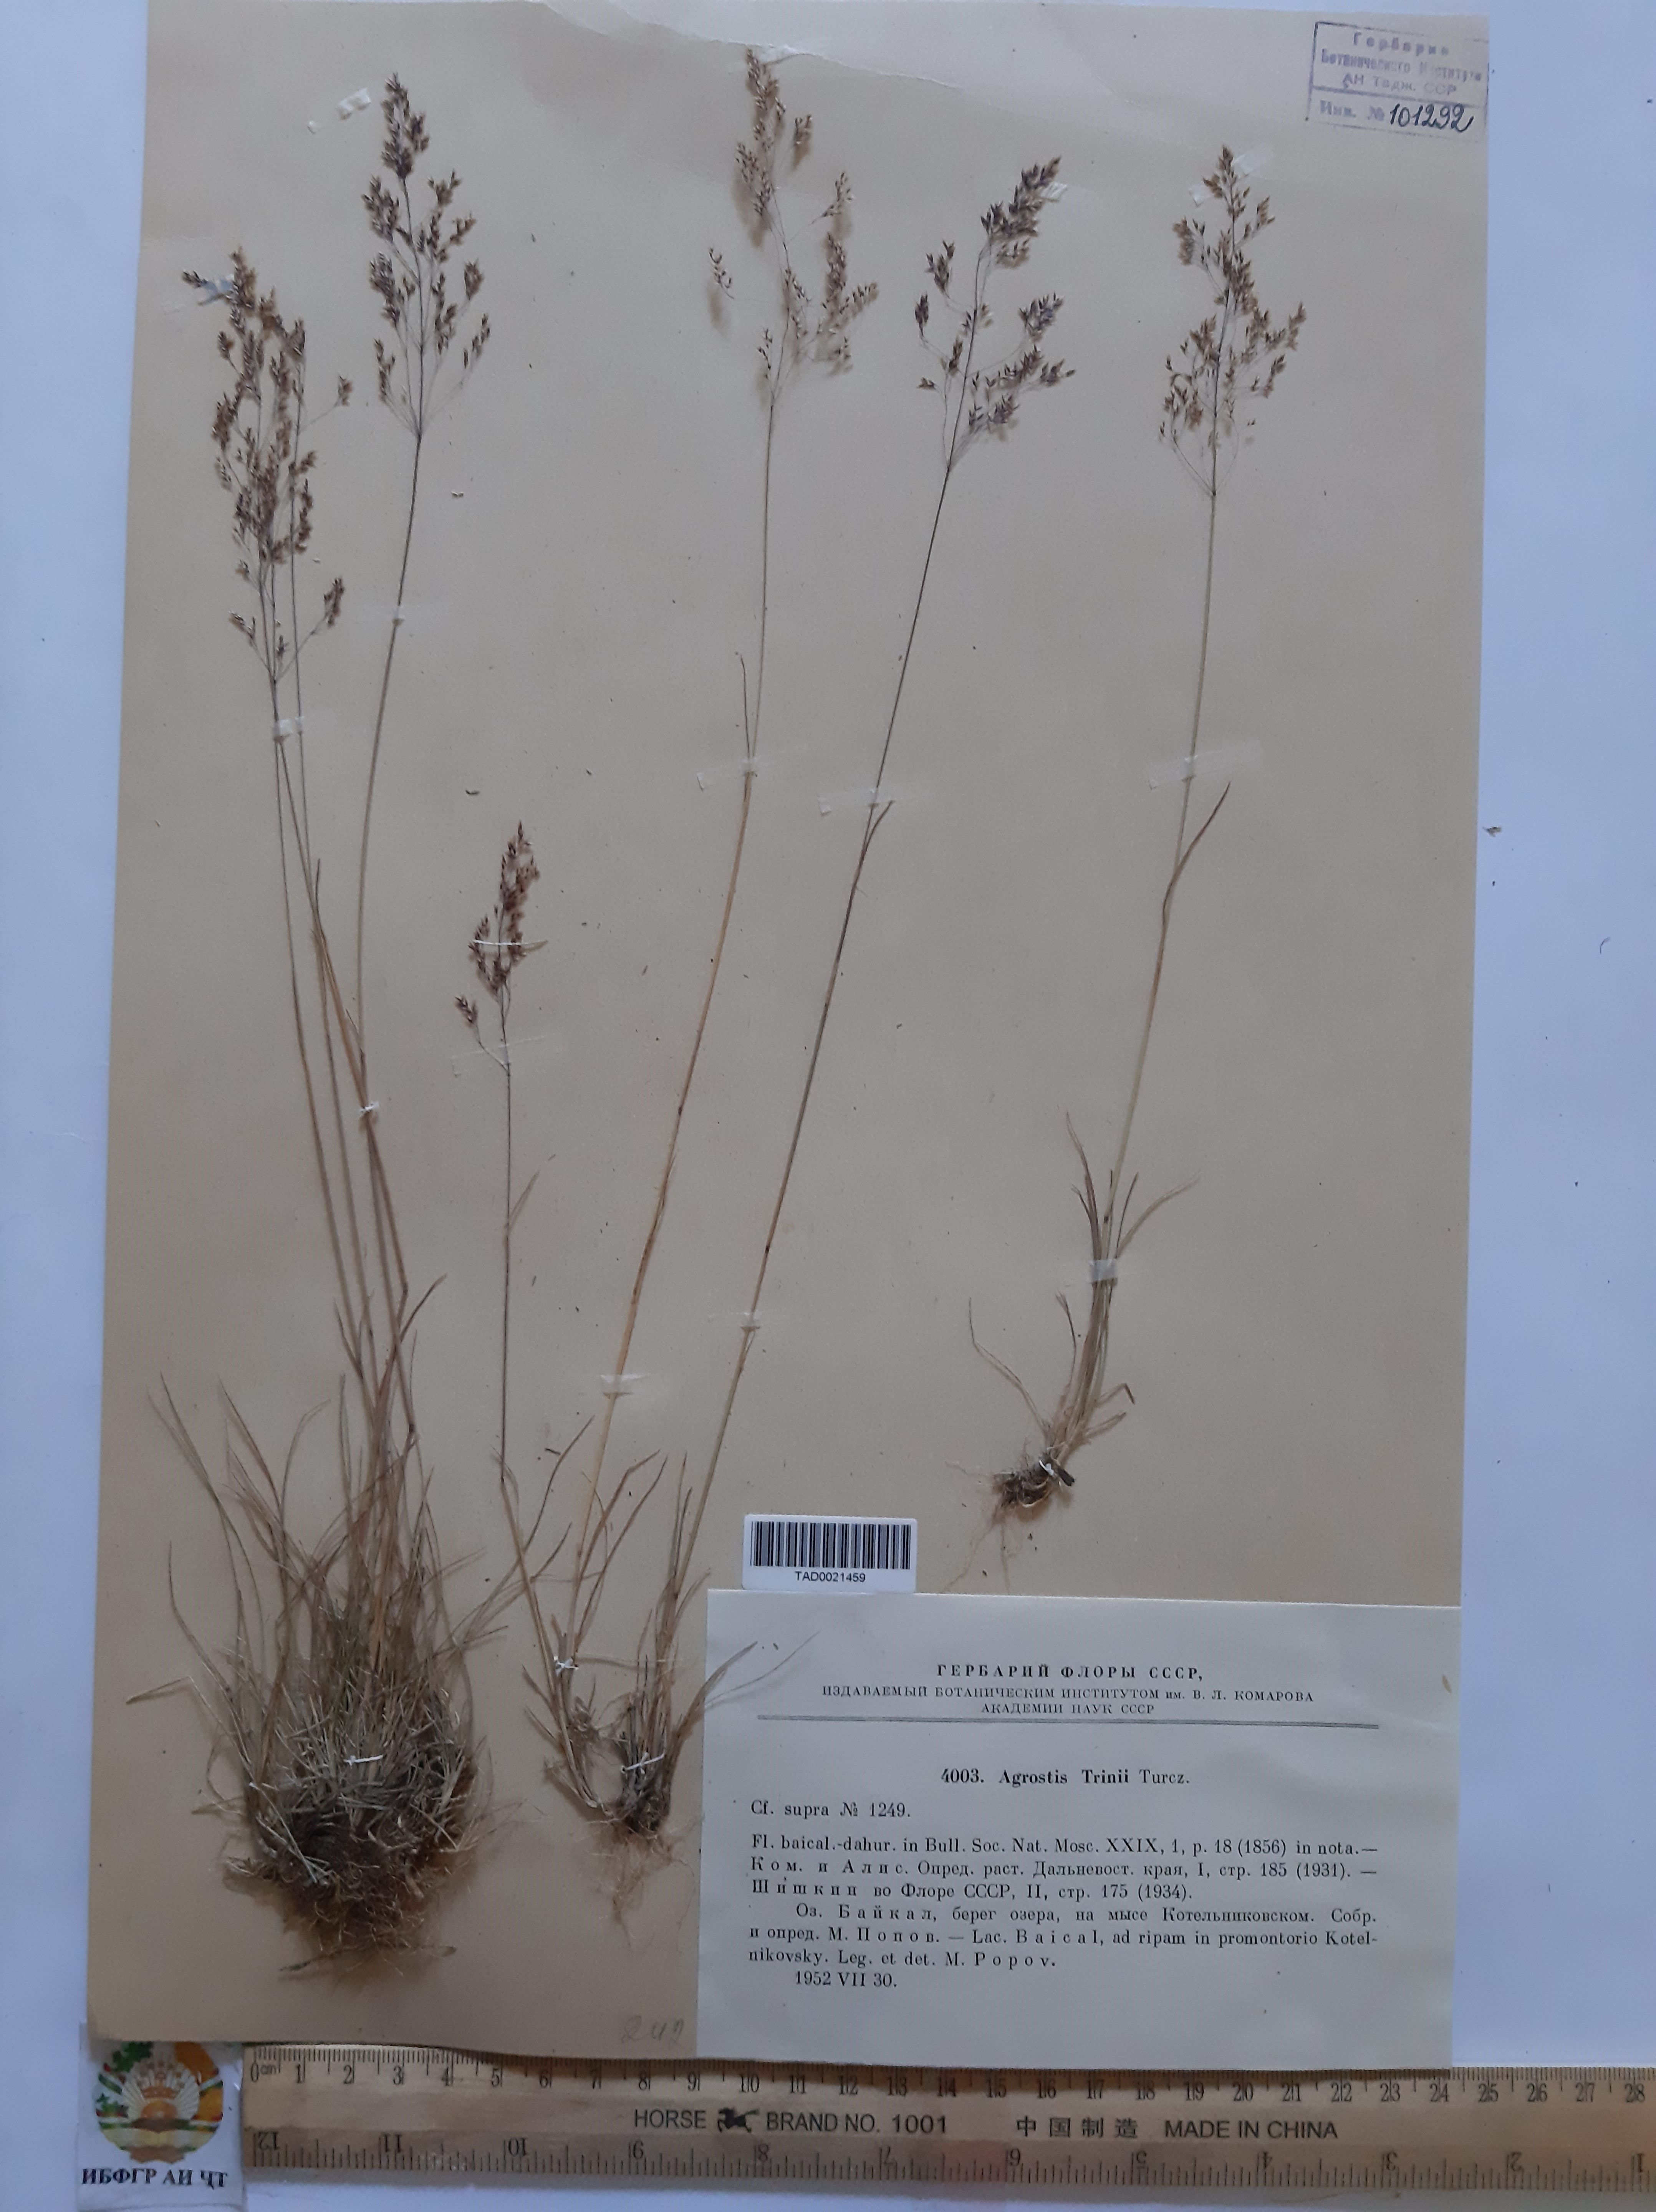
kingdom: Plantae
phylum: Tracheophyta
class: Liliopsida
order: Poales
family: Poaceae
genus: Agrostis
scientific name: Agrostis vinealis
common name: Brown bent
